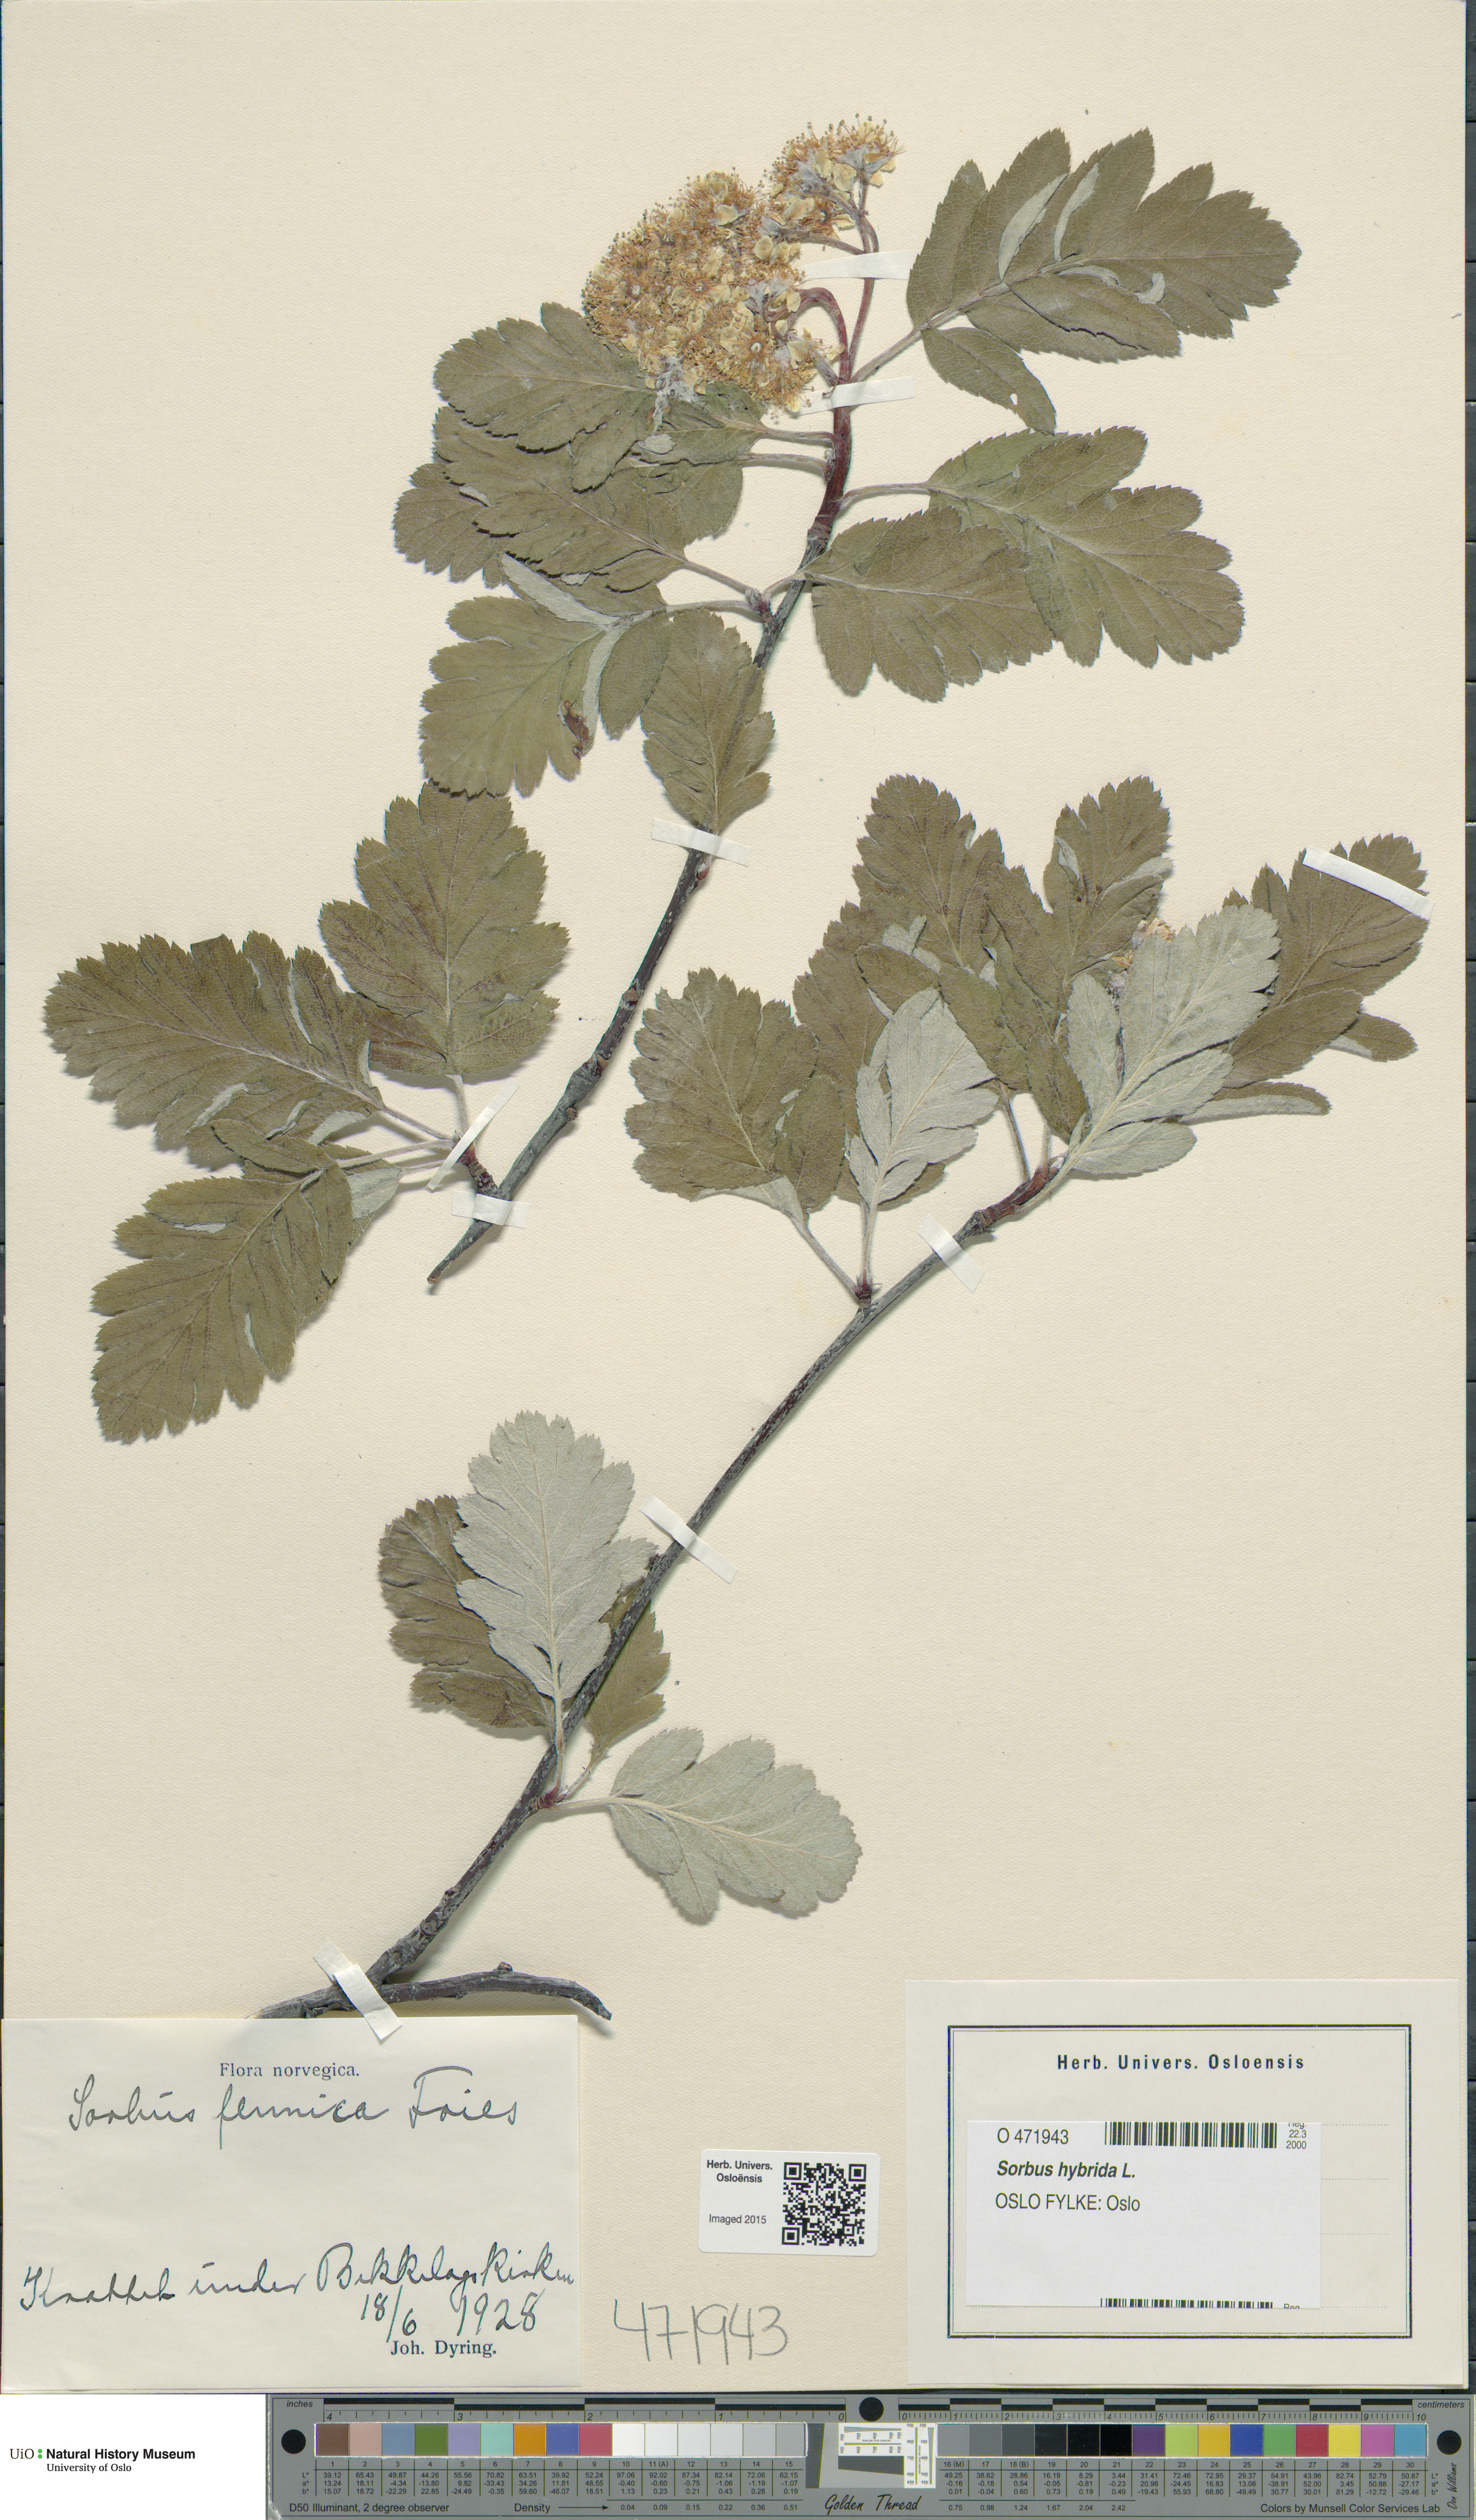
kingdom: Plantae
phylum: Tracheophyta
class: Magnoliopsida
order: Rosales
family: Rosaceae
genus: Hedlundia
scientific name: Hedlundia hybrida
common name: Swedish service-tree
